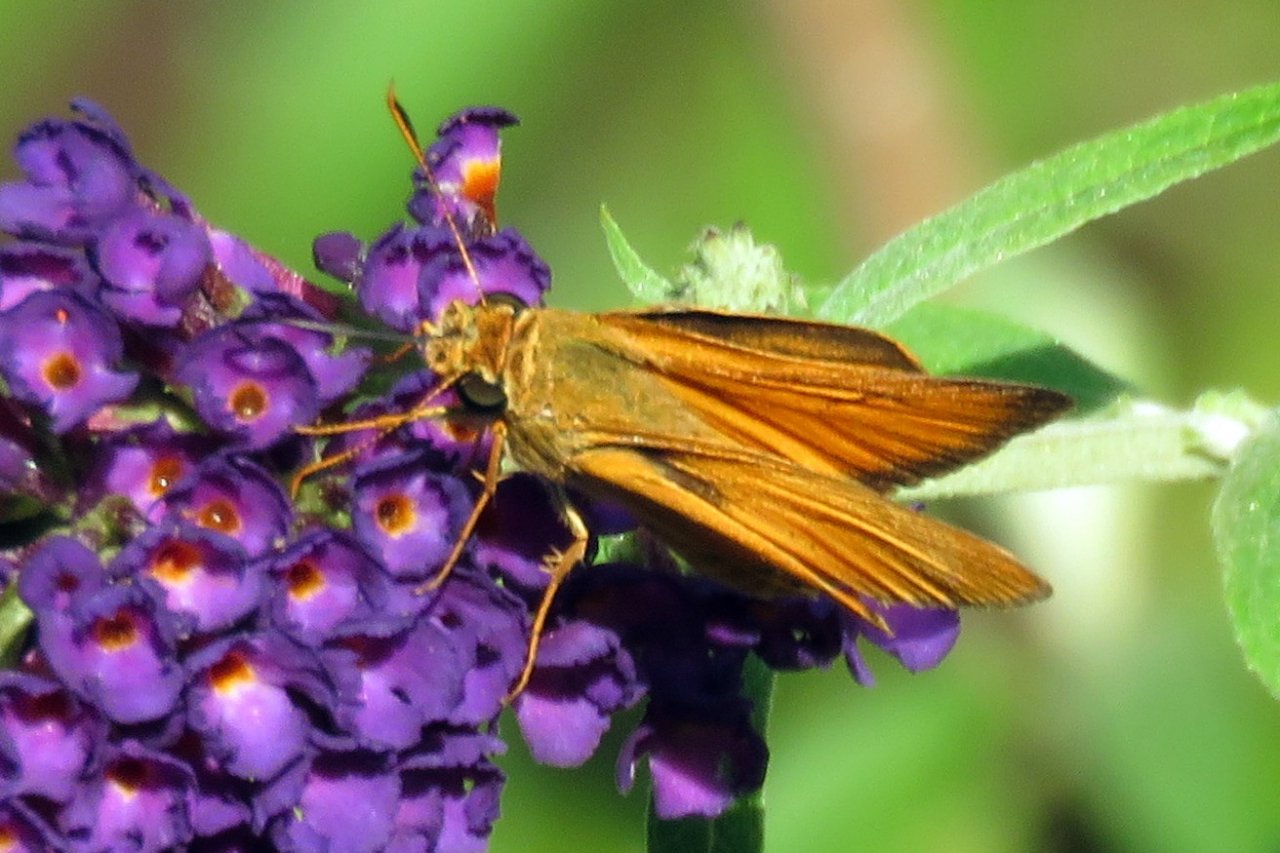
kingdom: Animalia
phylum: Arthropoda
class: Insecta
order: Lepidoptera
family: Hesperiidae
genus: Atrytone
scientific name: Atrytone delaware
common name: Delaware Skipper
